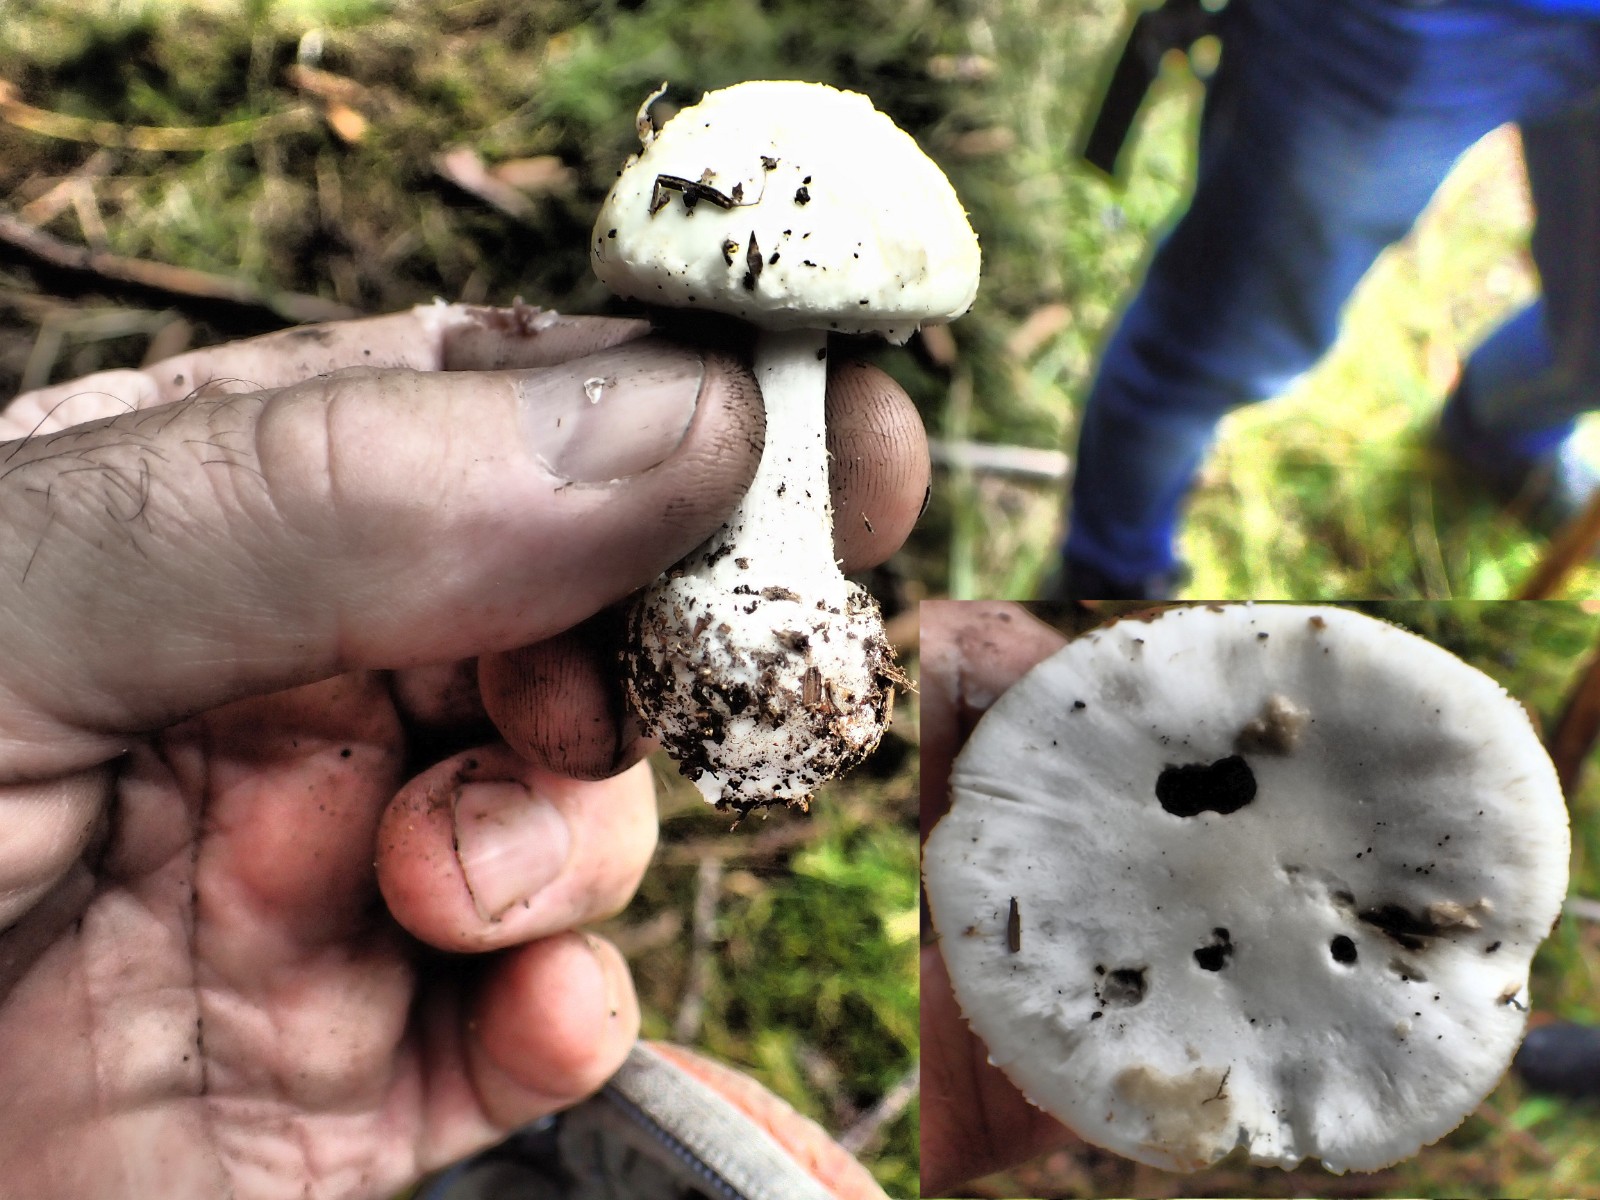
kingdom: Fungi
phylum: Basidiomycota
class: Agaricomycetes
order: Agaricales
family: Amanitaceae
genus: Amanita
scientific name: Amanita citrina
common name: False death-cap
